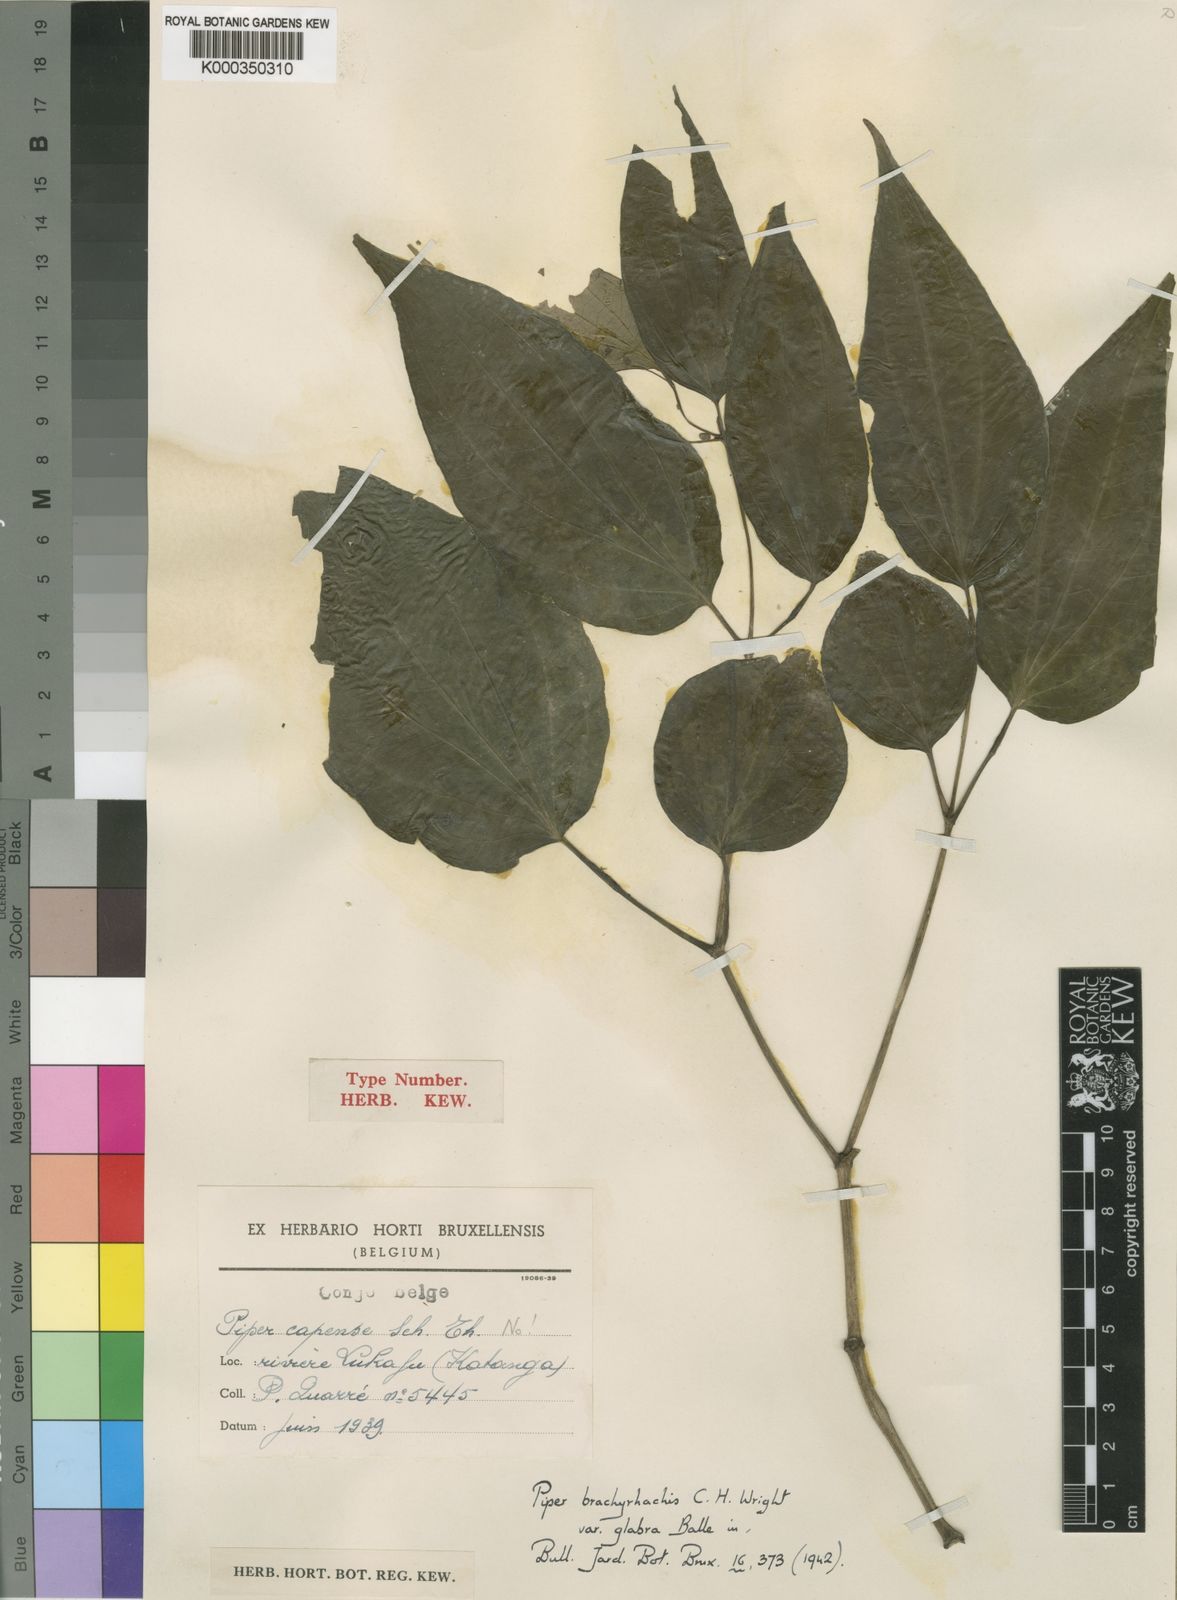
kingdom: Plantae
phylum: Tracheophyta
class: Magnoliopsida
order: Piperales
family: Piperaceae
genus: Piper
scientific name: Piper
